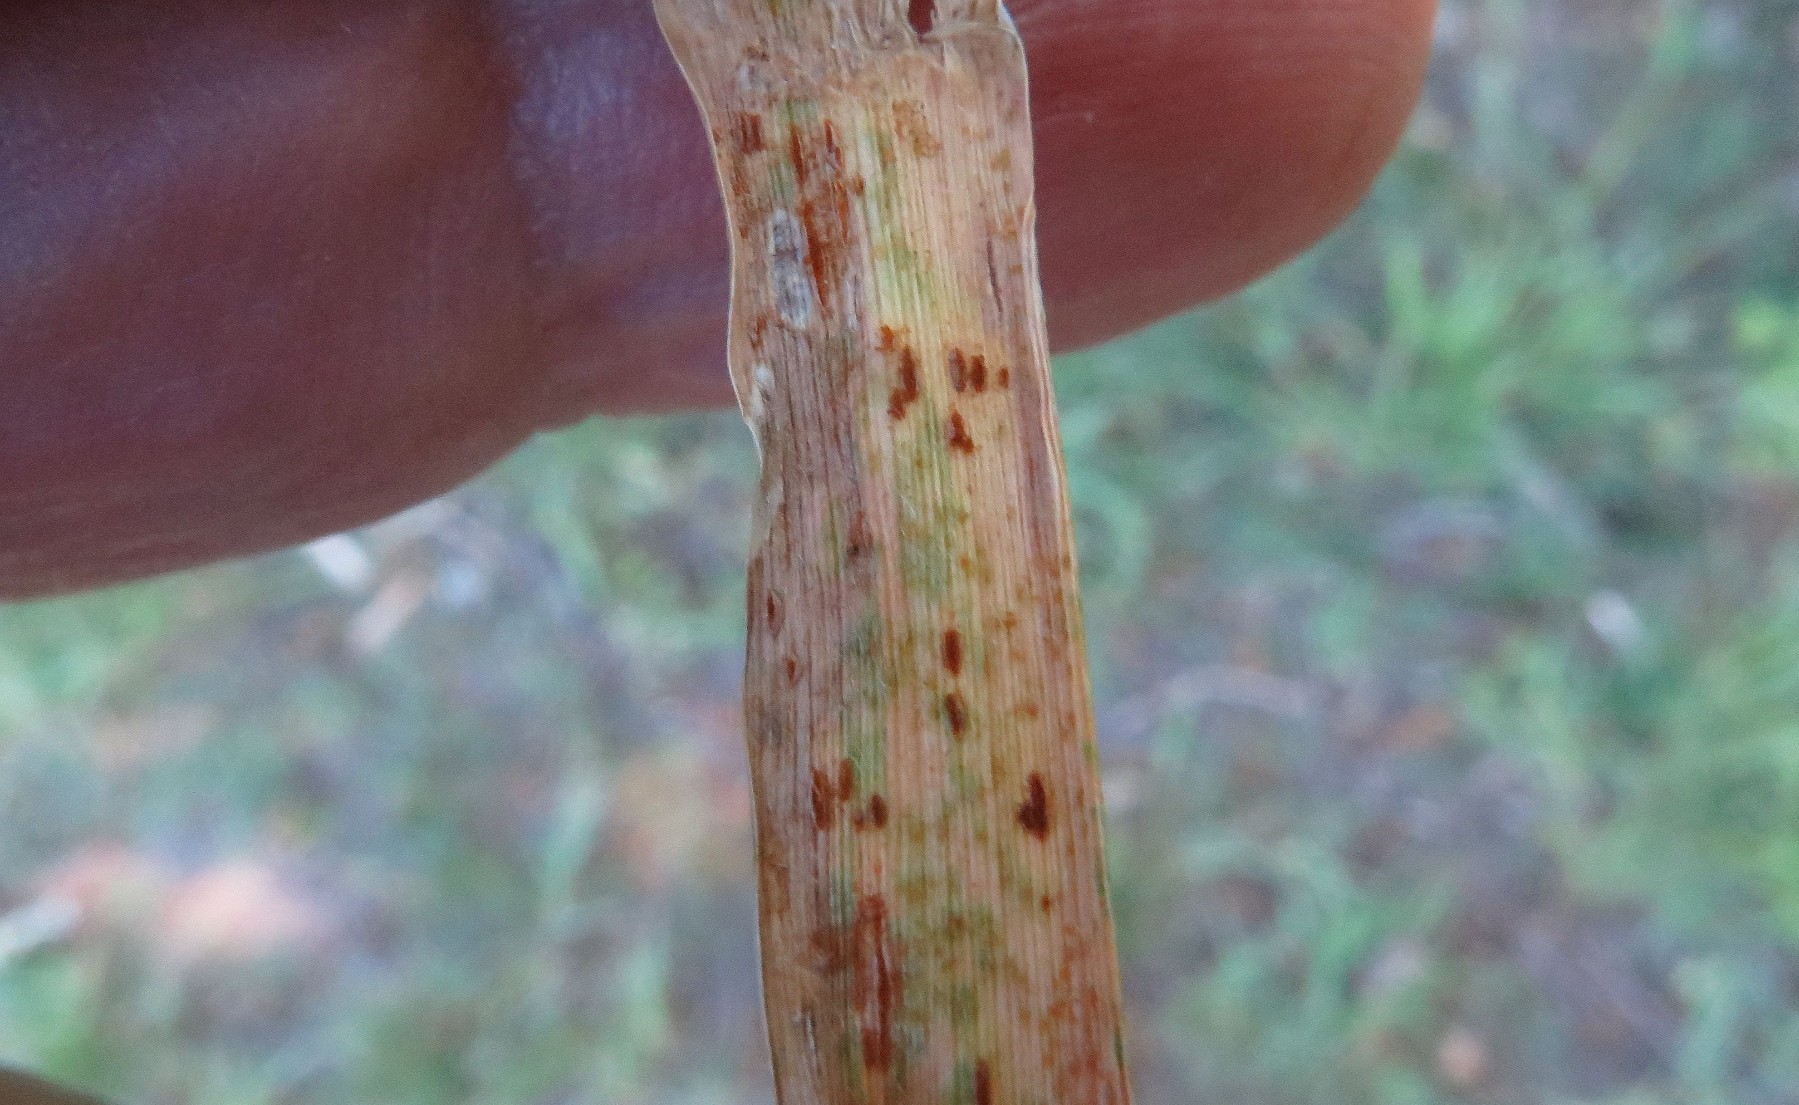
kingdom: Fungi
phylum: Basidiomycota
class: Pucciniomycetes
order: Pucciniales
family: Pucciniaceae
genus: Puccinia
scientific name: Puccinia
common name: tvecellerust
